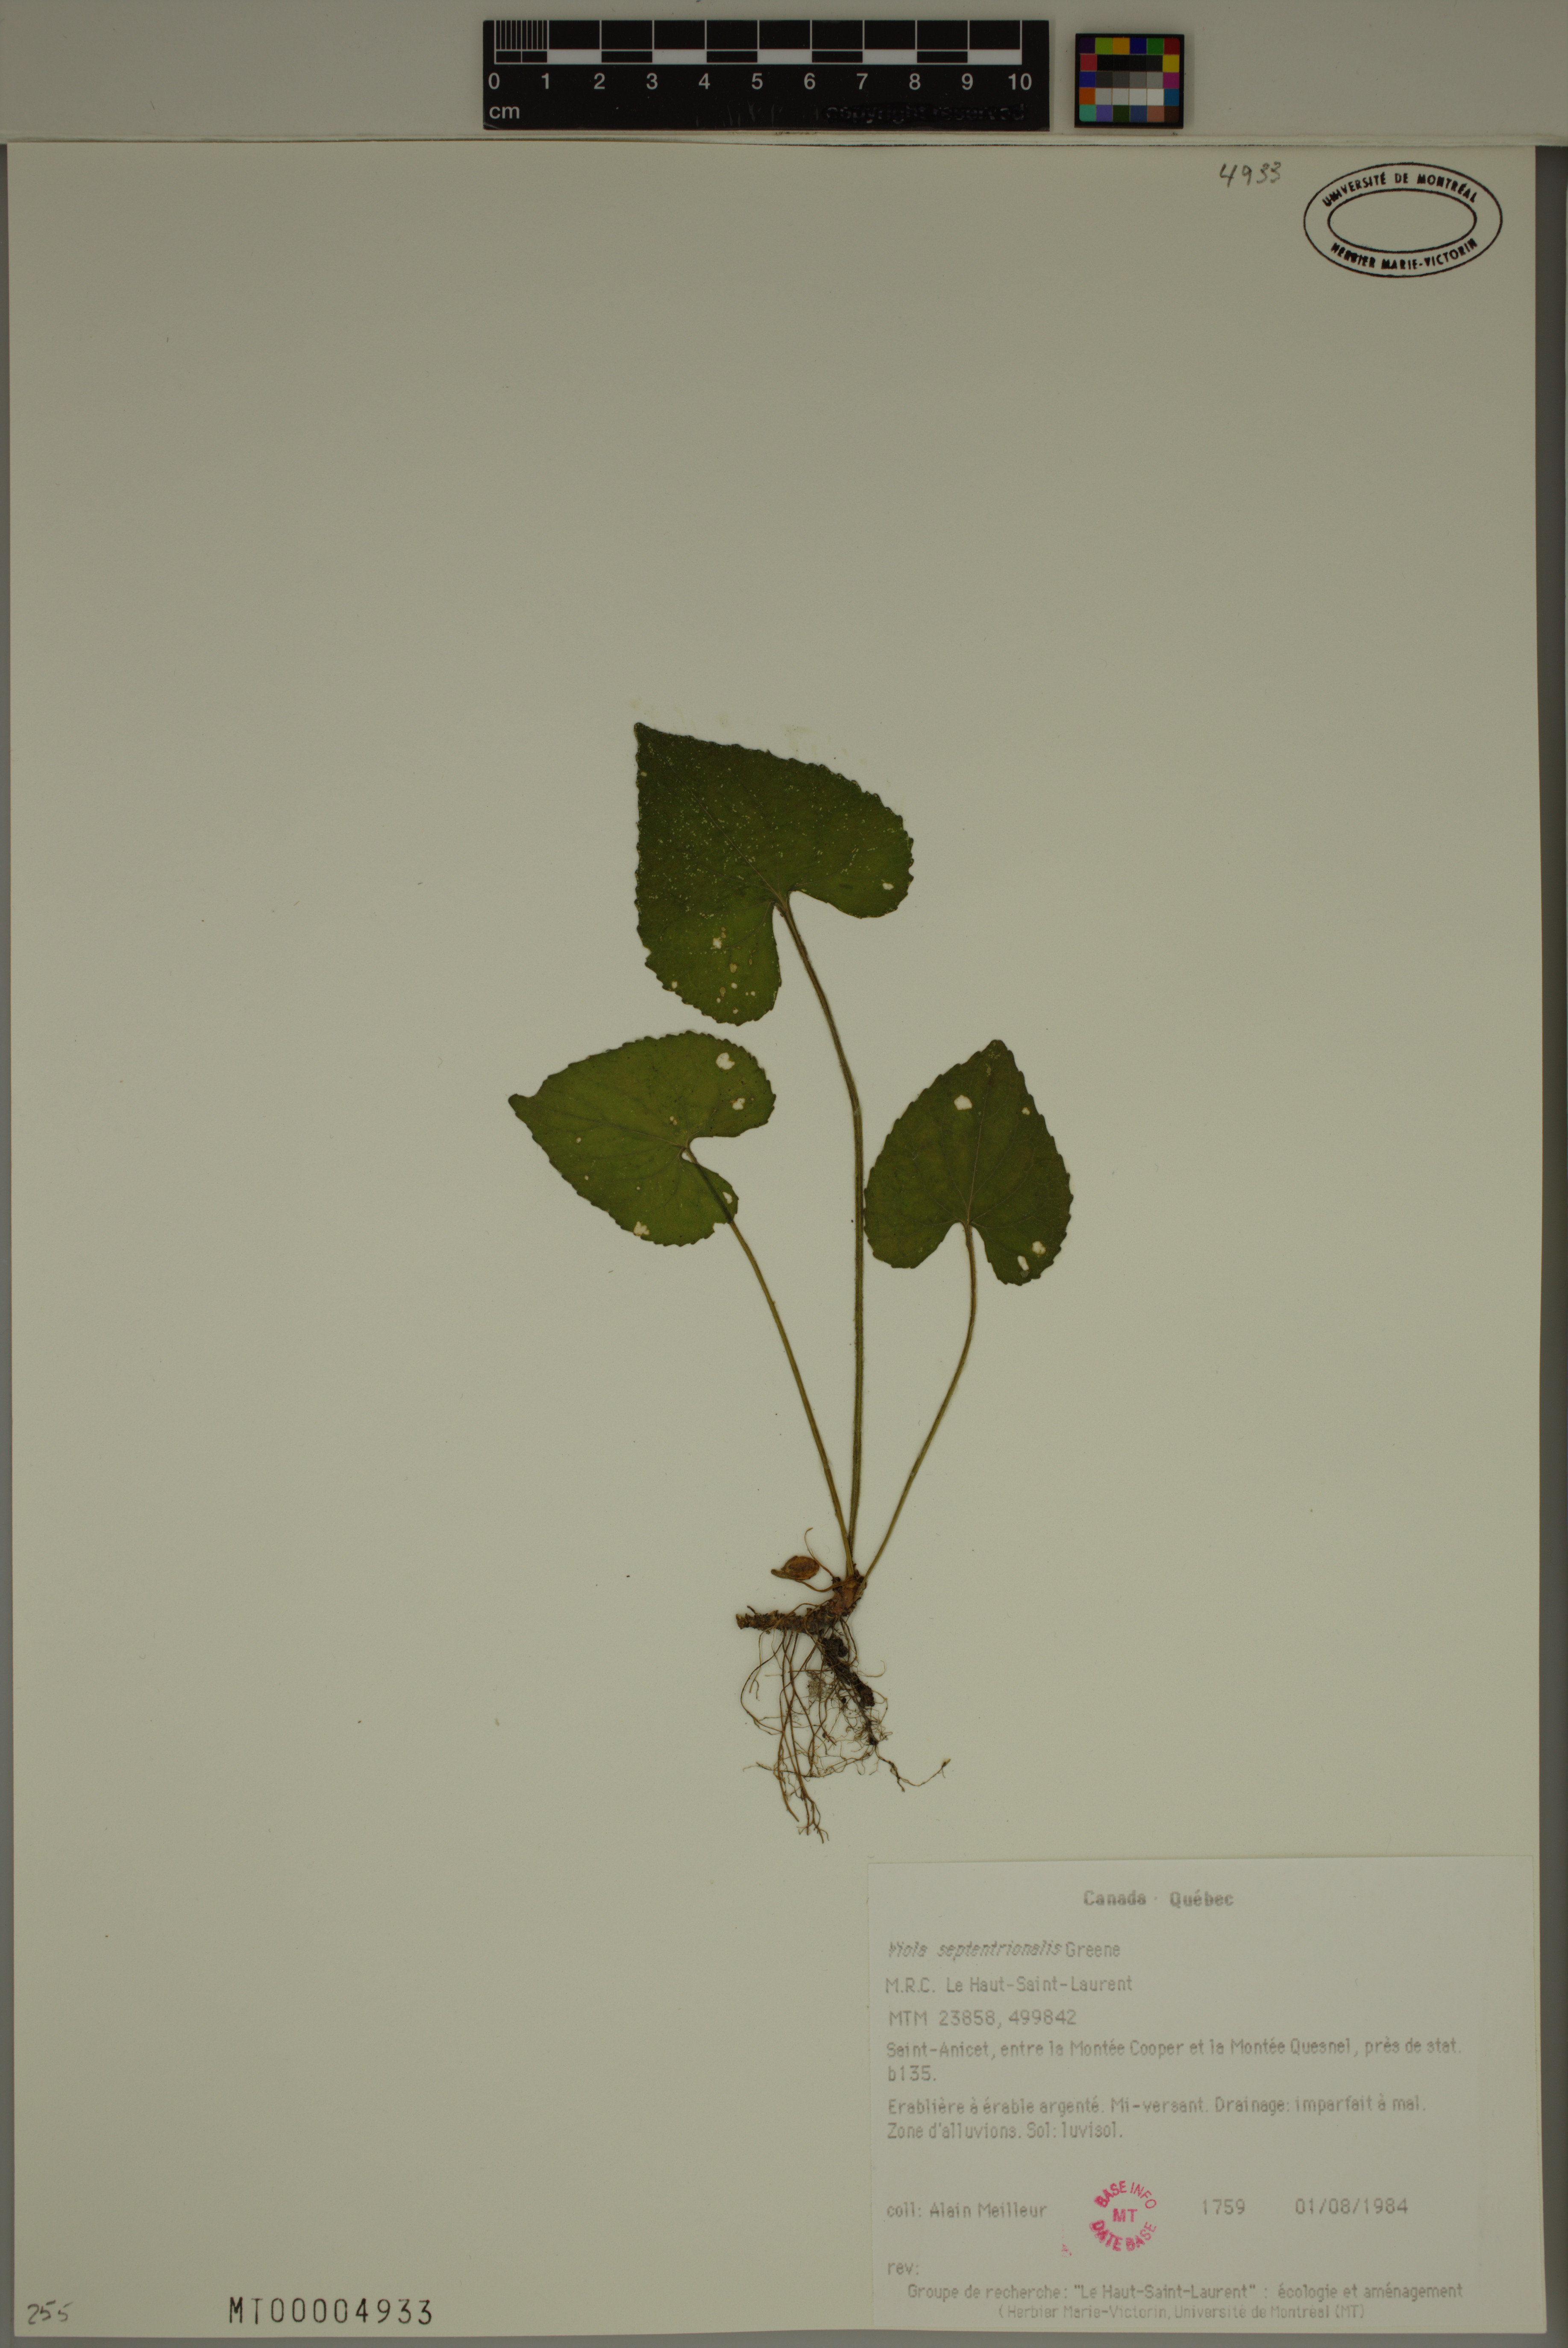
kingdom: Plantae
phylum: Tracheophyta
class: Magnoliopsida
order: Malpighiales
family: Violaceae
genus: Viola
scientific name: Viola sororia
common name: Dooryard violet
